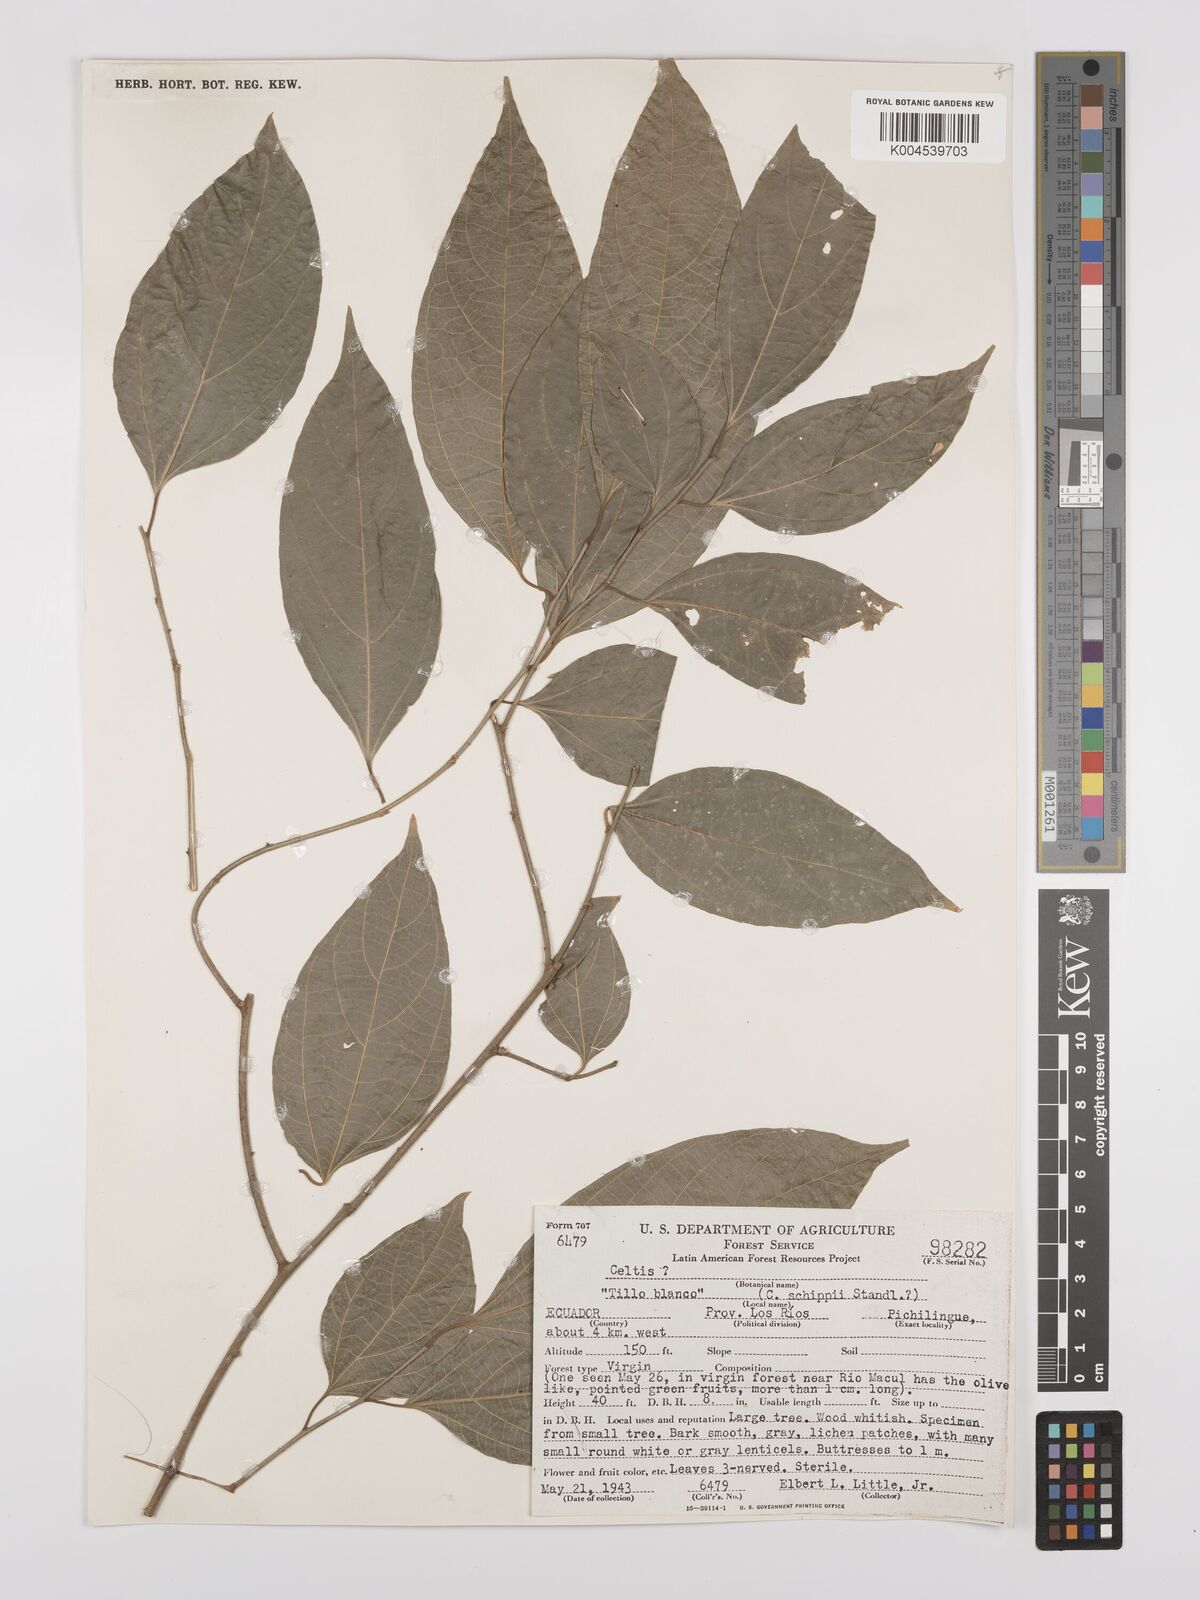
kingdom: Plantae
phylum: Tracheophyta
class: Magnoliopsida
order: Rosales
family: Cannabaceae
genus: Celtis
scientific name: Celtis schippii
